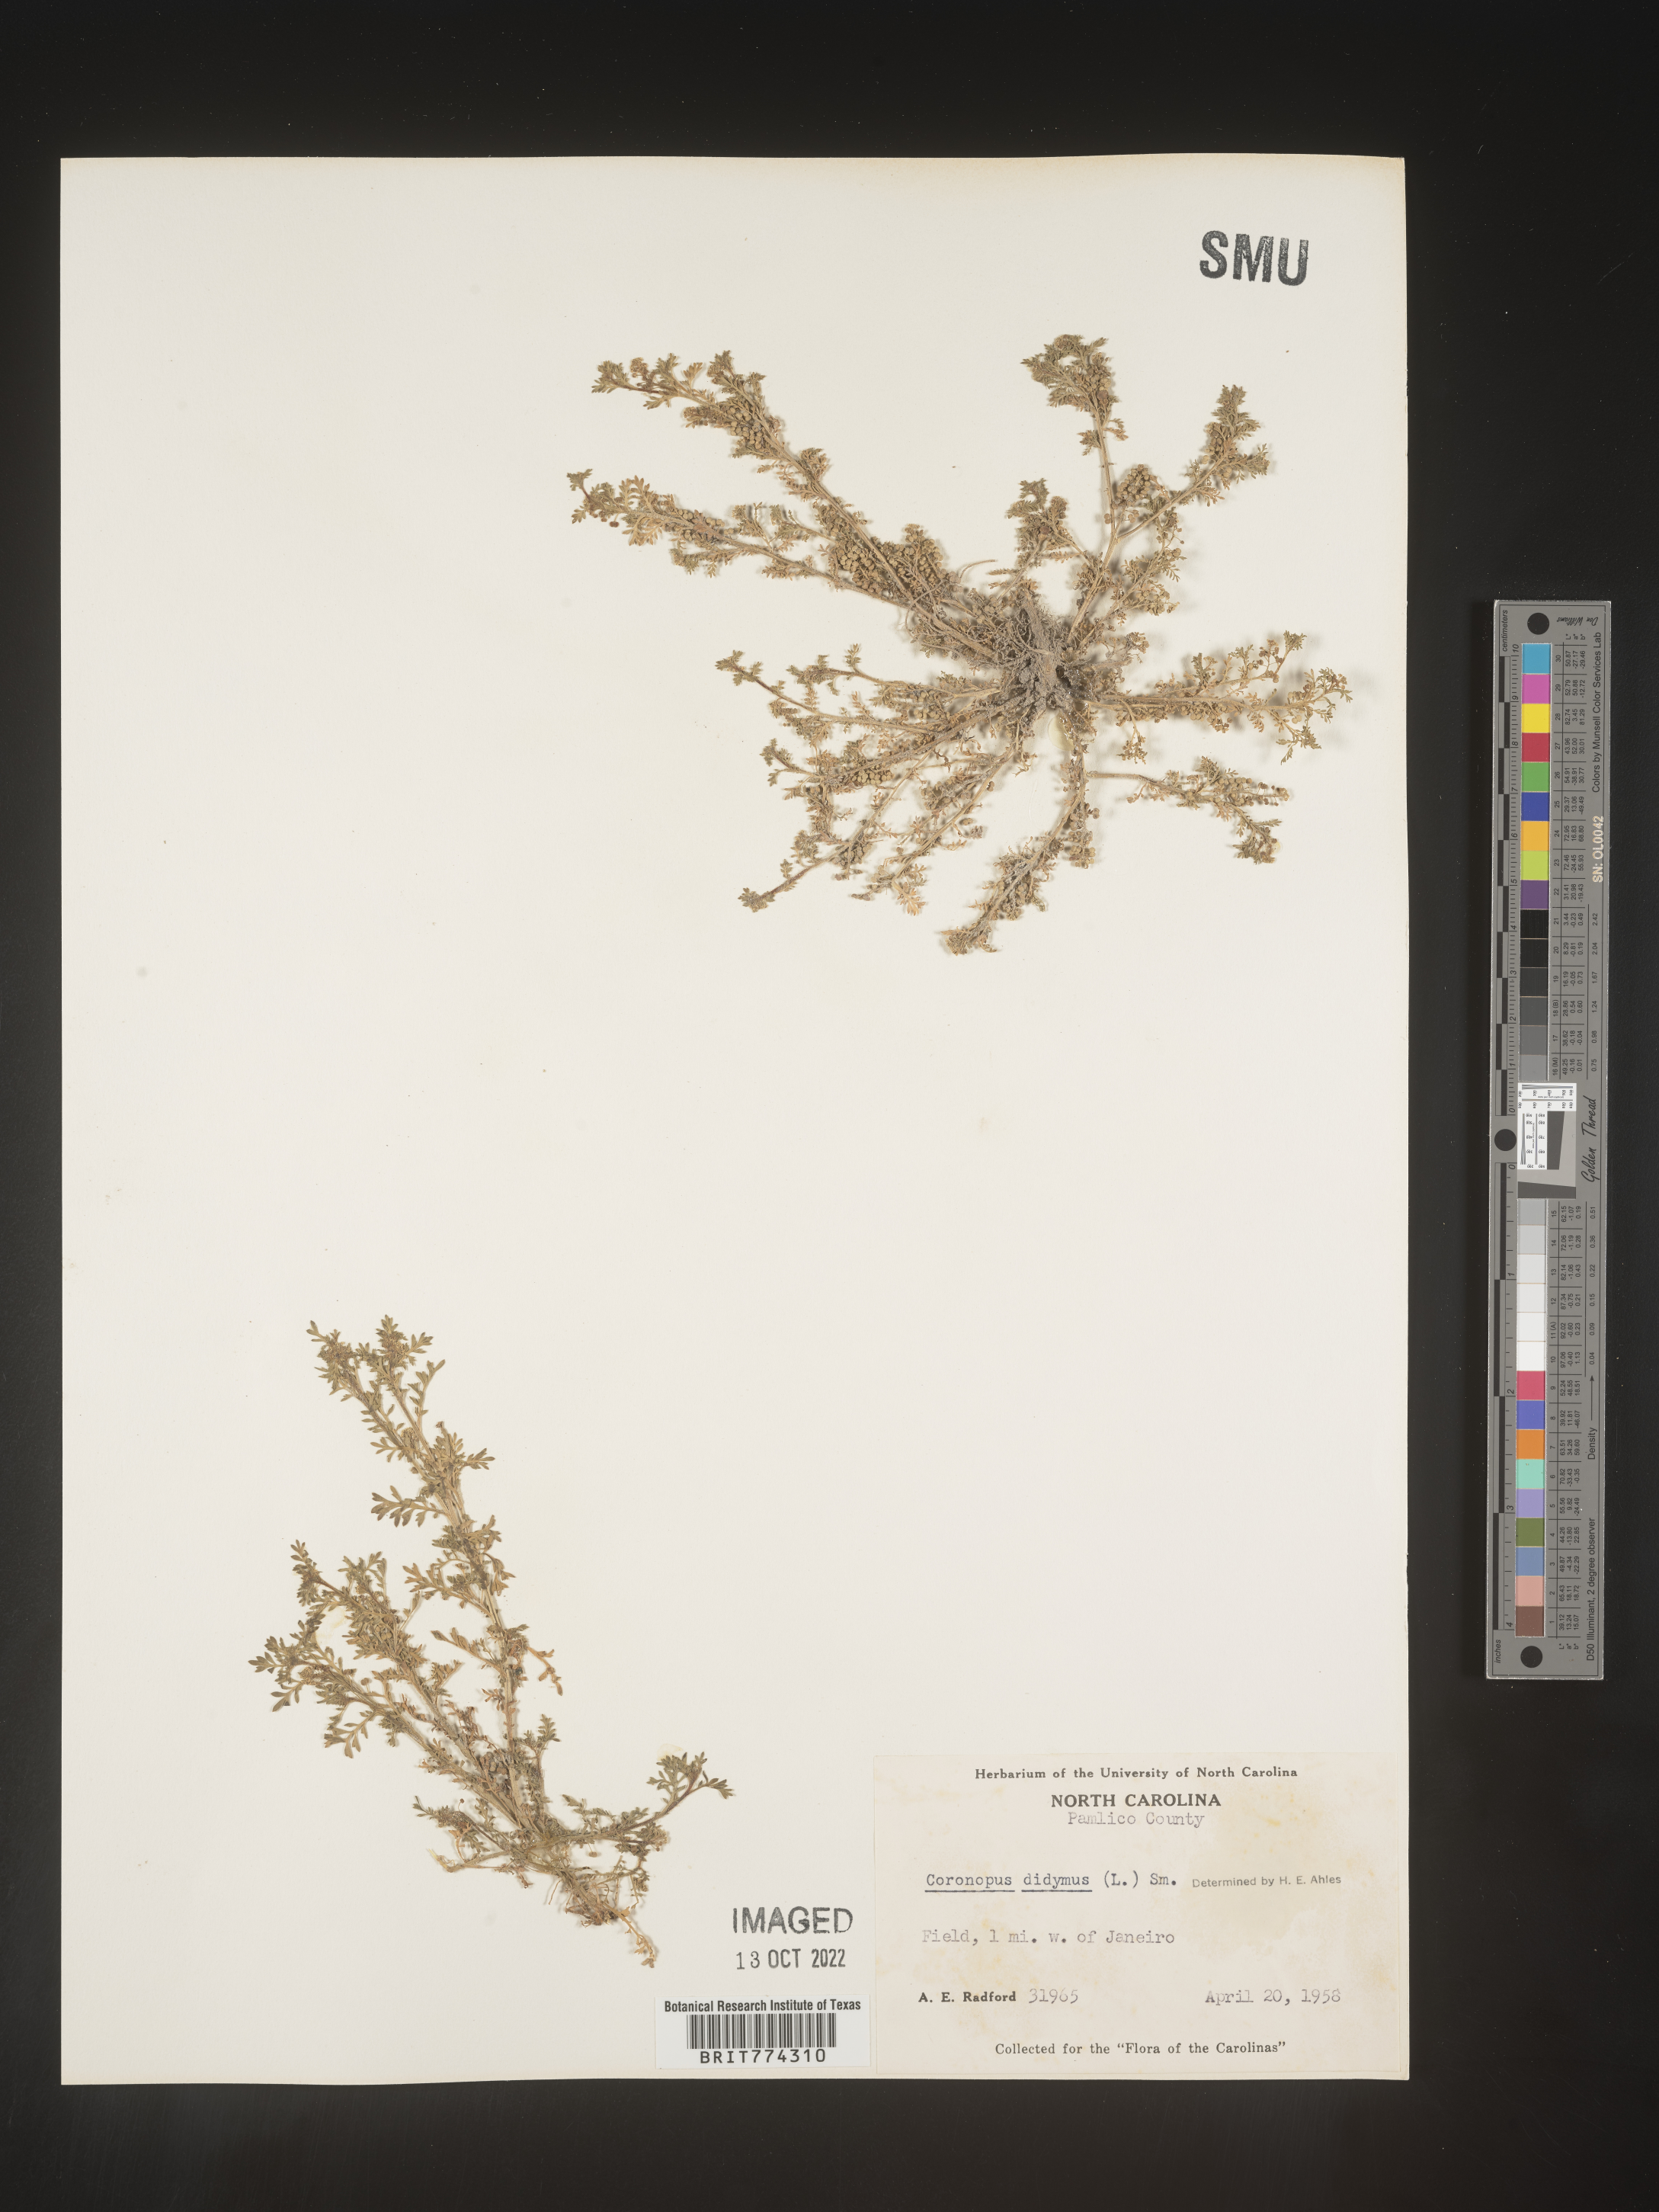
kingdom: Plantae
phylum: Tracheophyta
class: Magnoliopsida
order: Brassicales
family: Brassicaceae
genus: Coronopus
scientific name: Coronopus
